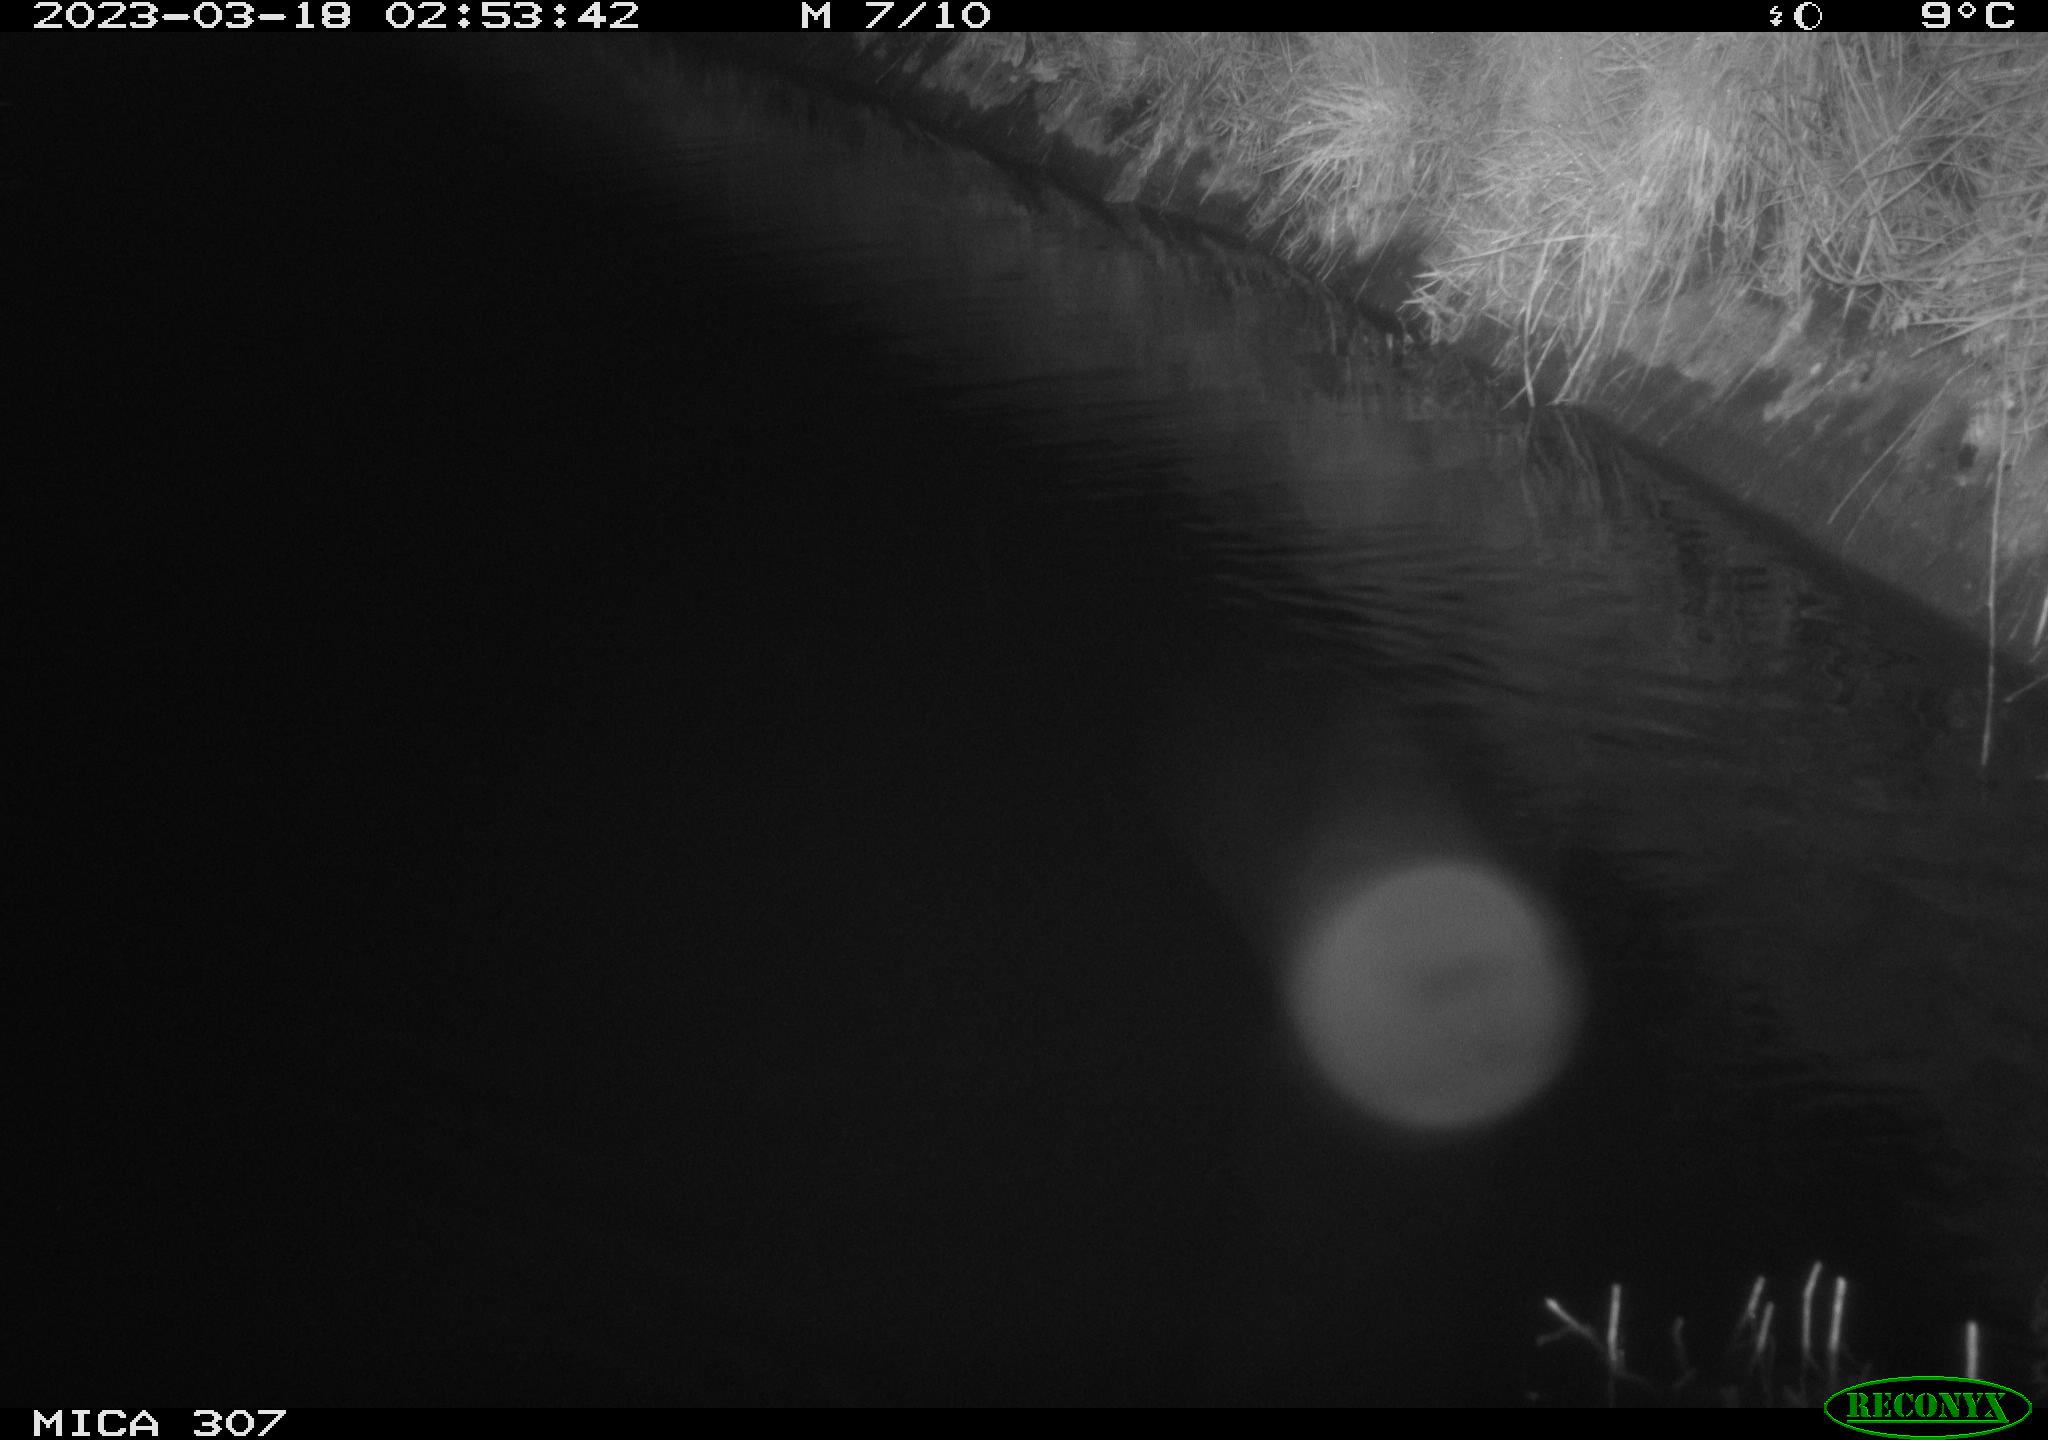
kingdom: Animalia
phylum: Chordata
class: Mammalia
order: Rodentia
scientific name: Rodentia
